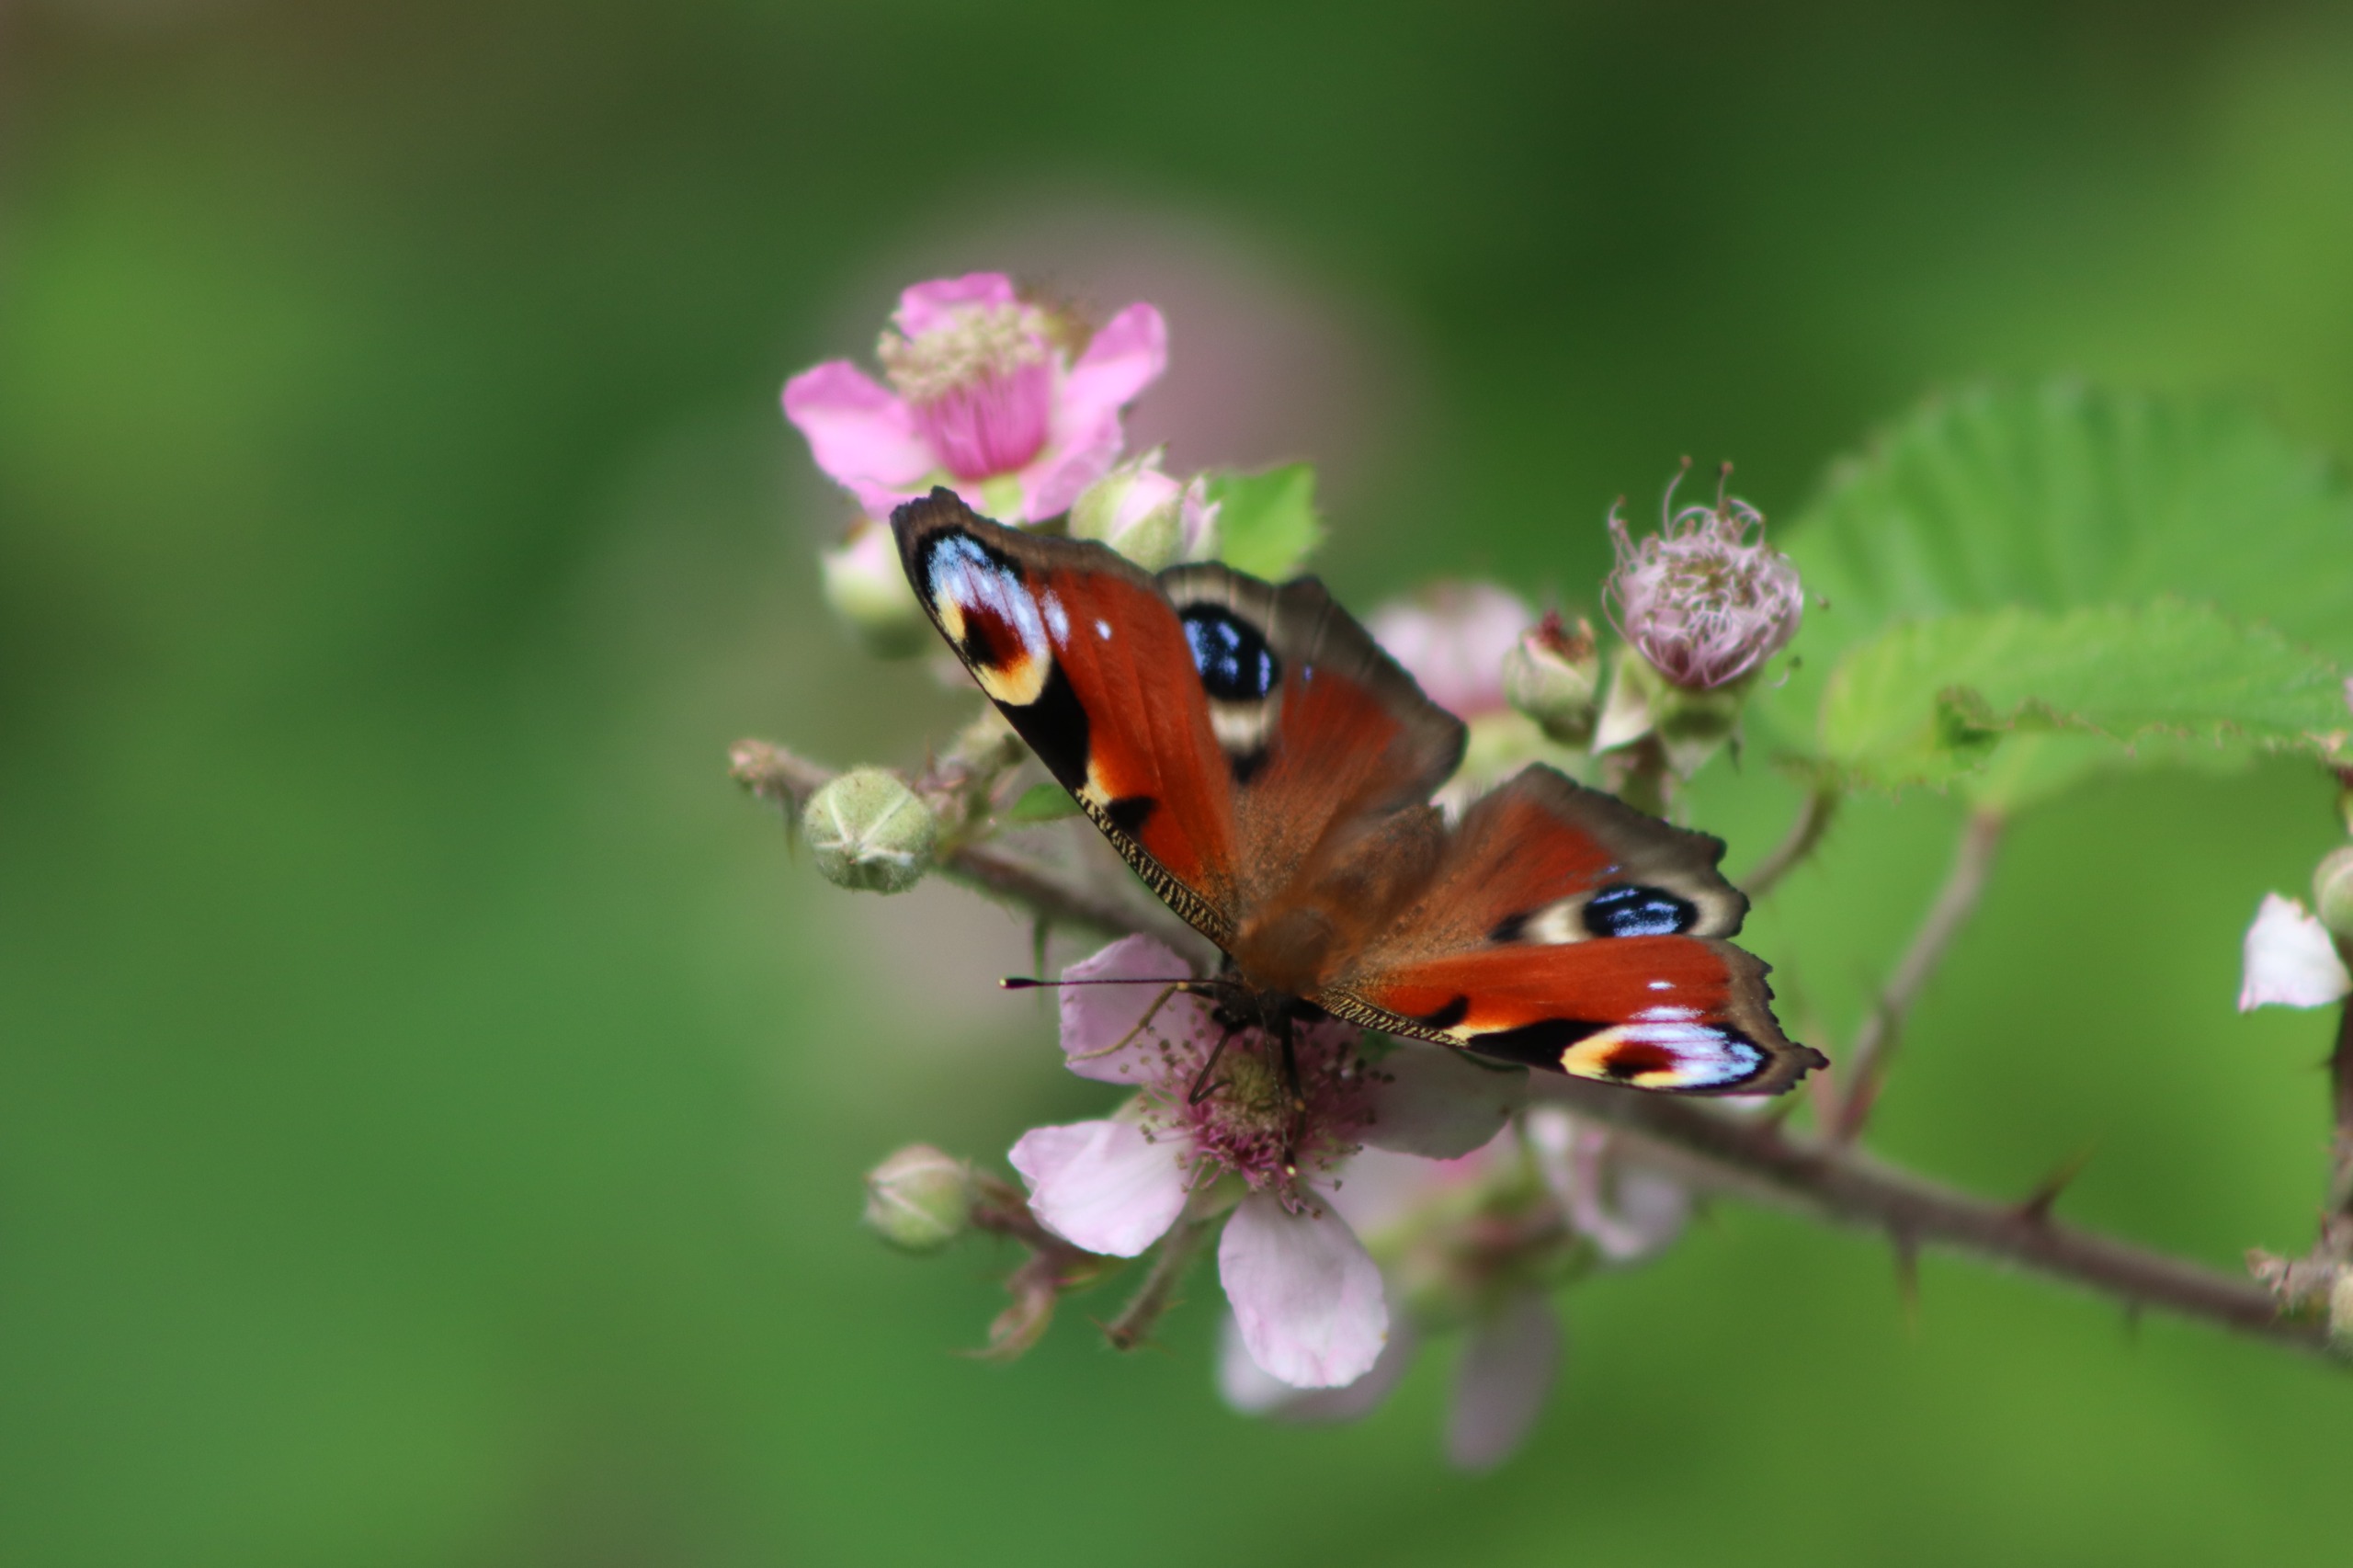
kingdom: Animalia
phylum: Arthropoda
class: Insecta
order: Lepidoptera
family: Nymphalidae
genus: Aglais
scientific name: Aglais io
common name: Dagpåfugleøje
